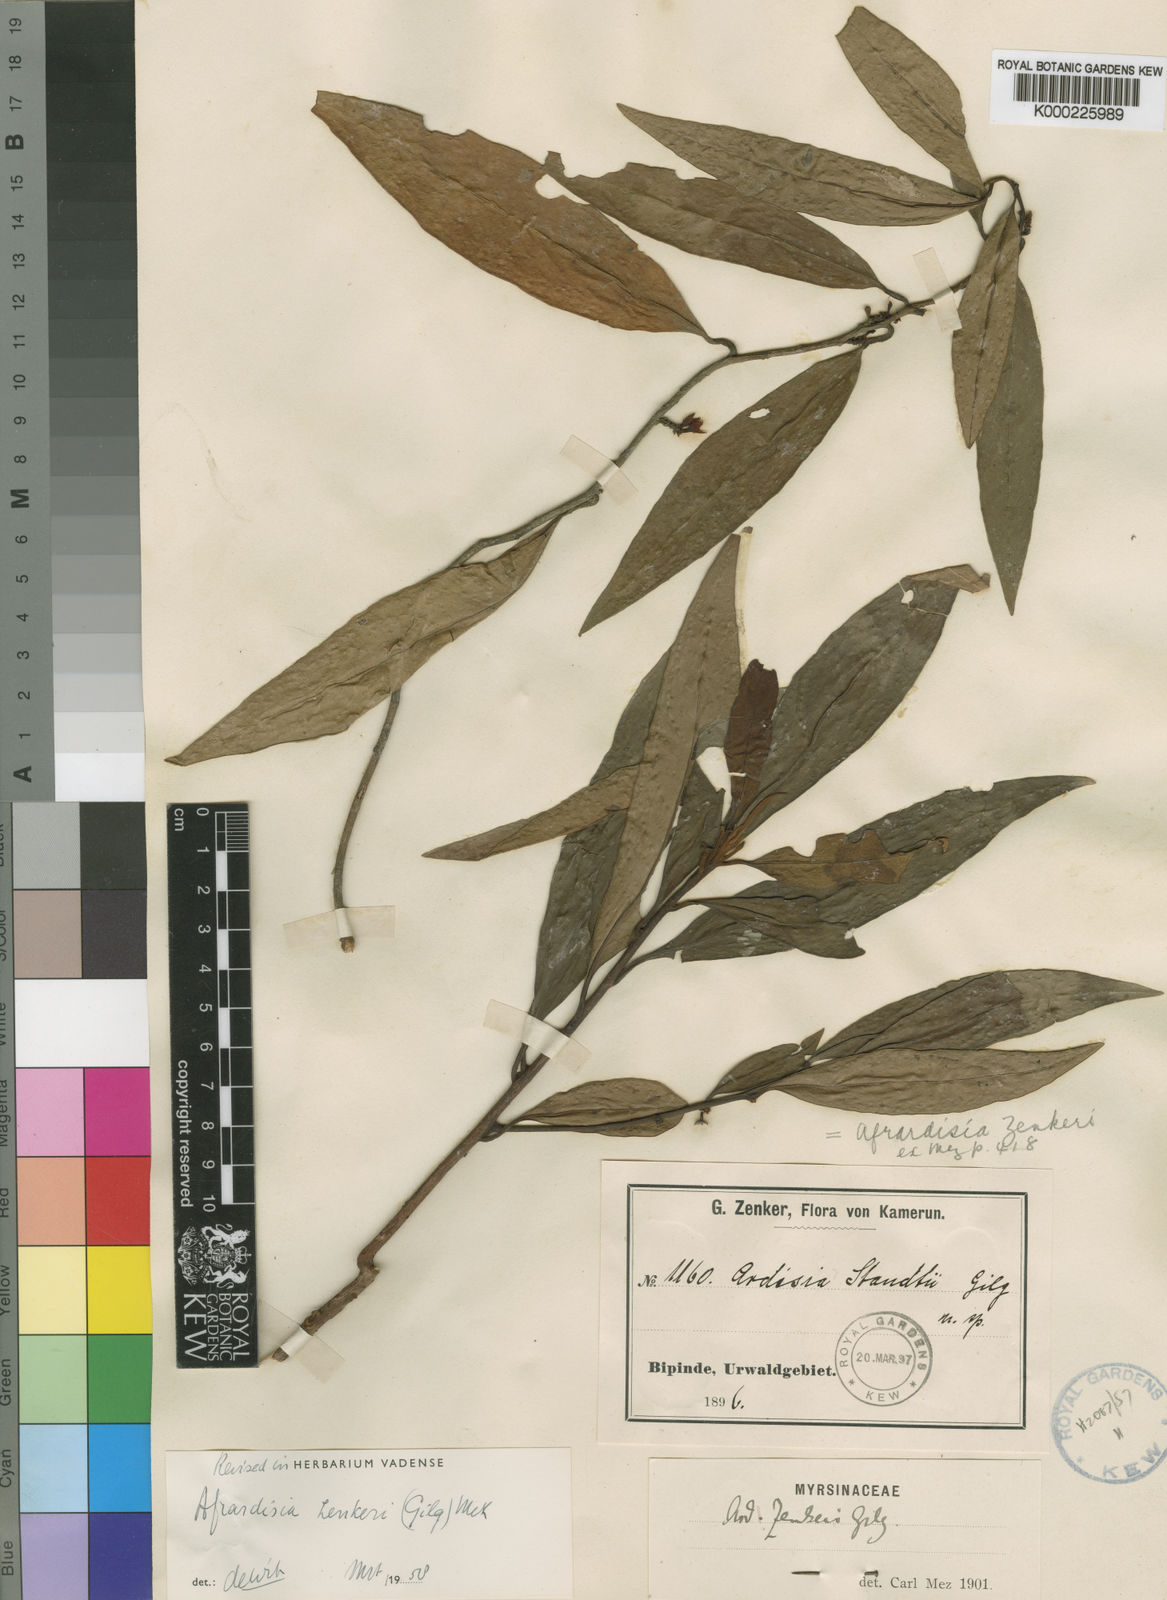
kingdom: Plantae
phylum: Tracheophyta
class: Magnoliopsida
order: Ericales
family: Primulaceae
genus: Ardisia
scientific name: Ardisia zenkeri
